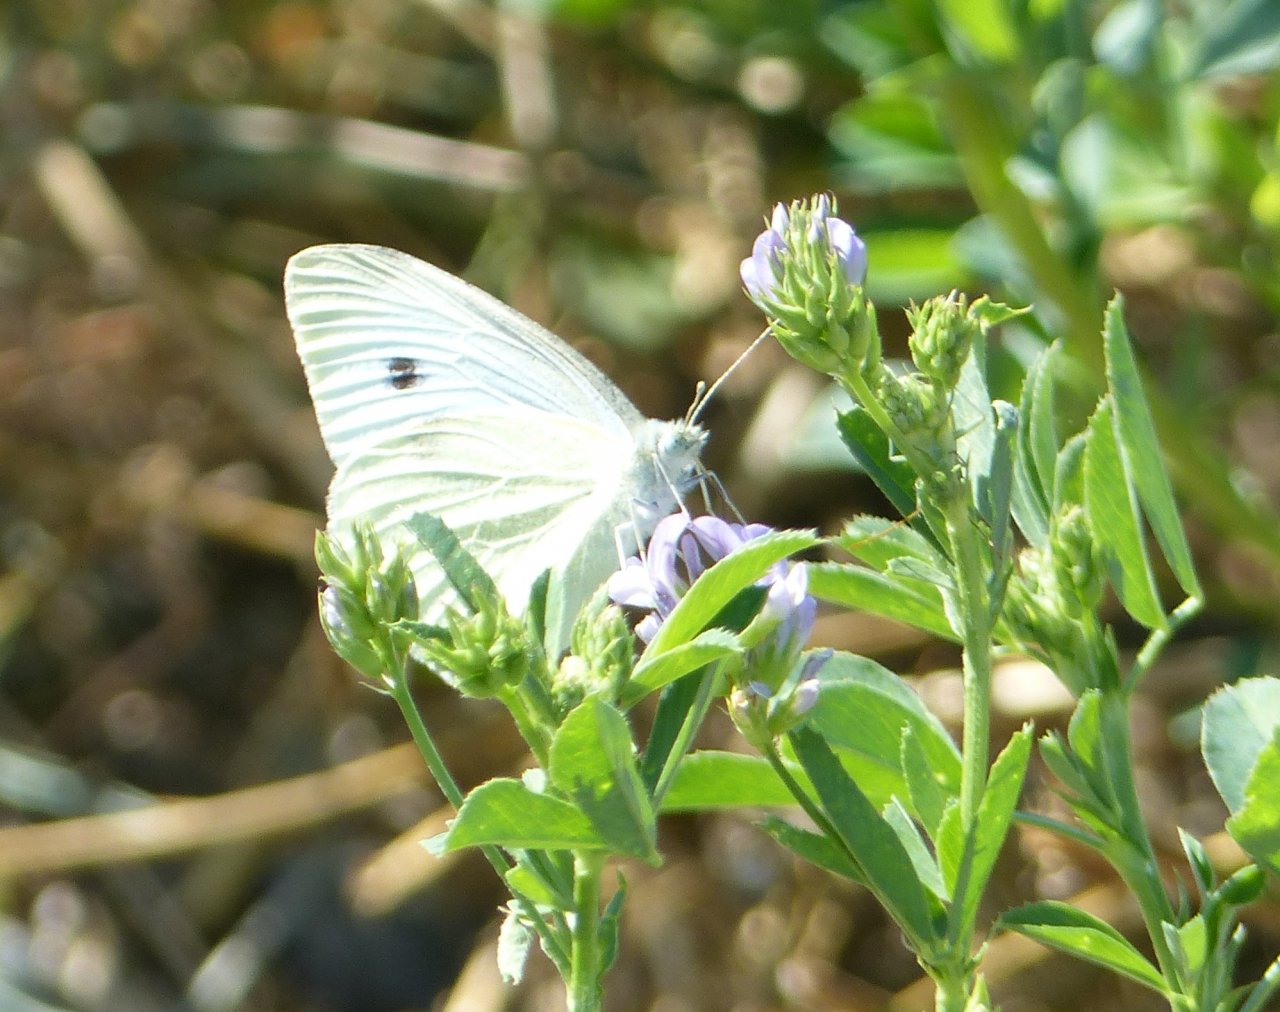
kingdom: Animalia
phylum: Arthropoda
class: Insecta
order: Lepidoptera
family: Pieridae
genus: Pieris
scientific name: Pieris rapae
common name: Cabbage White
